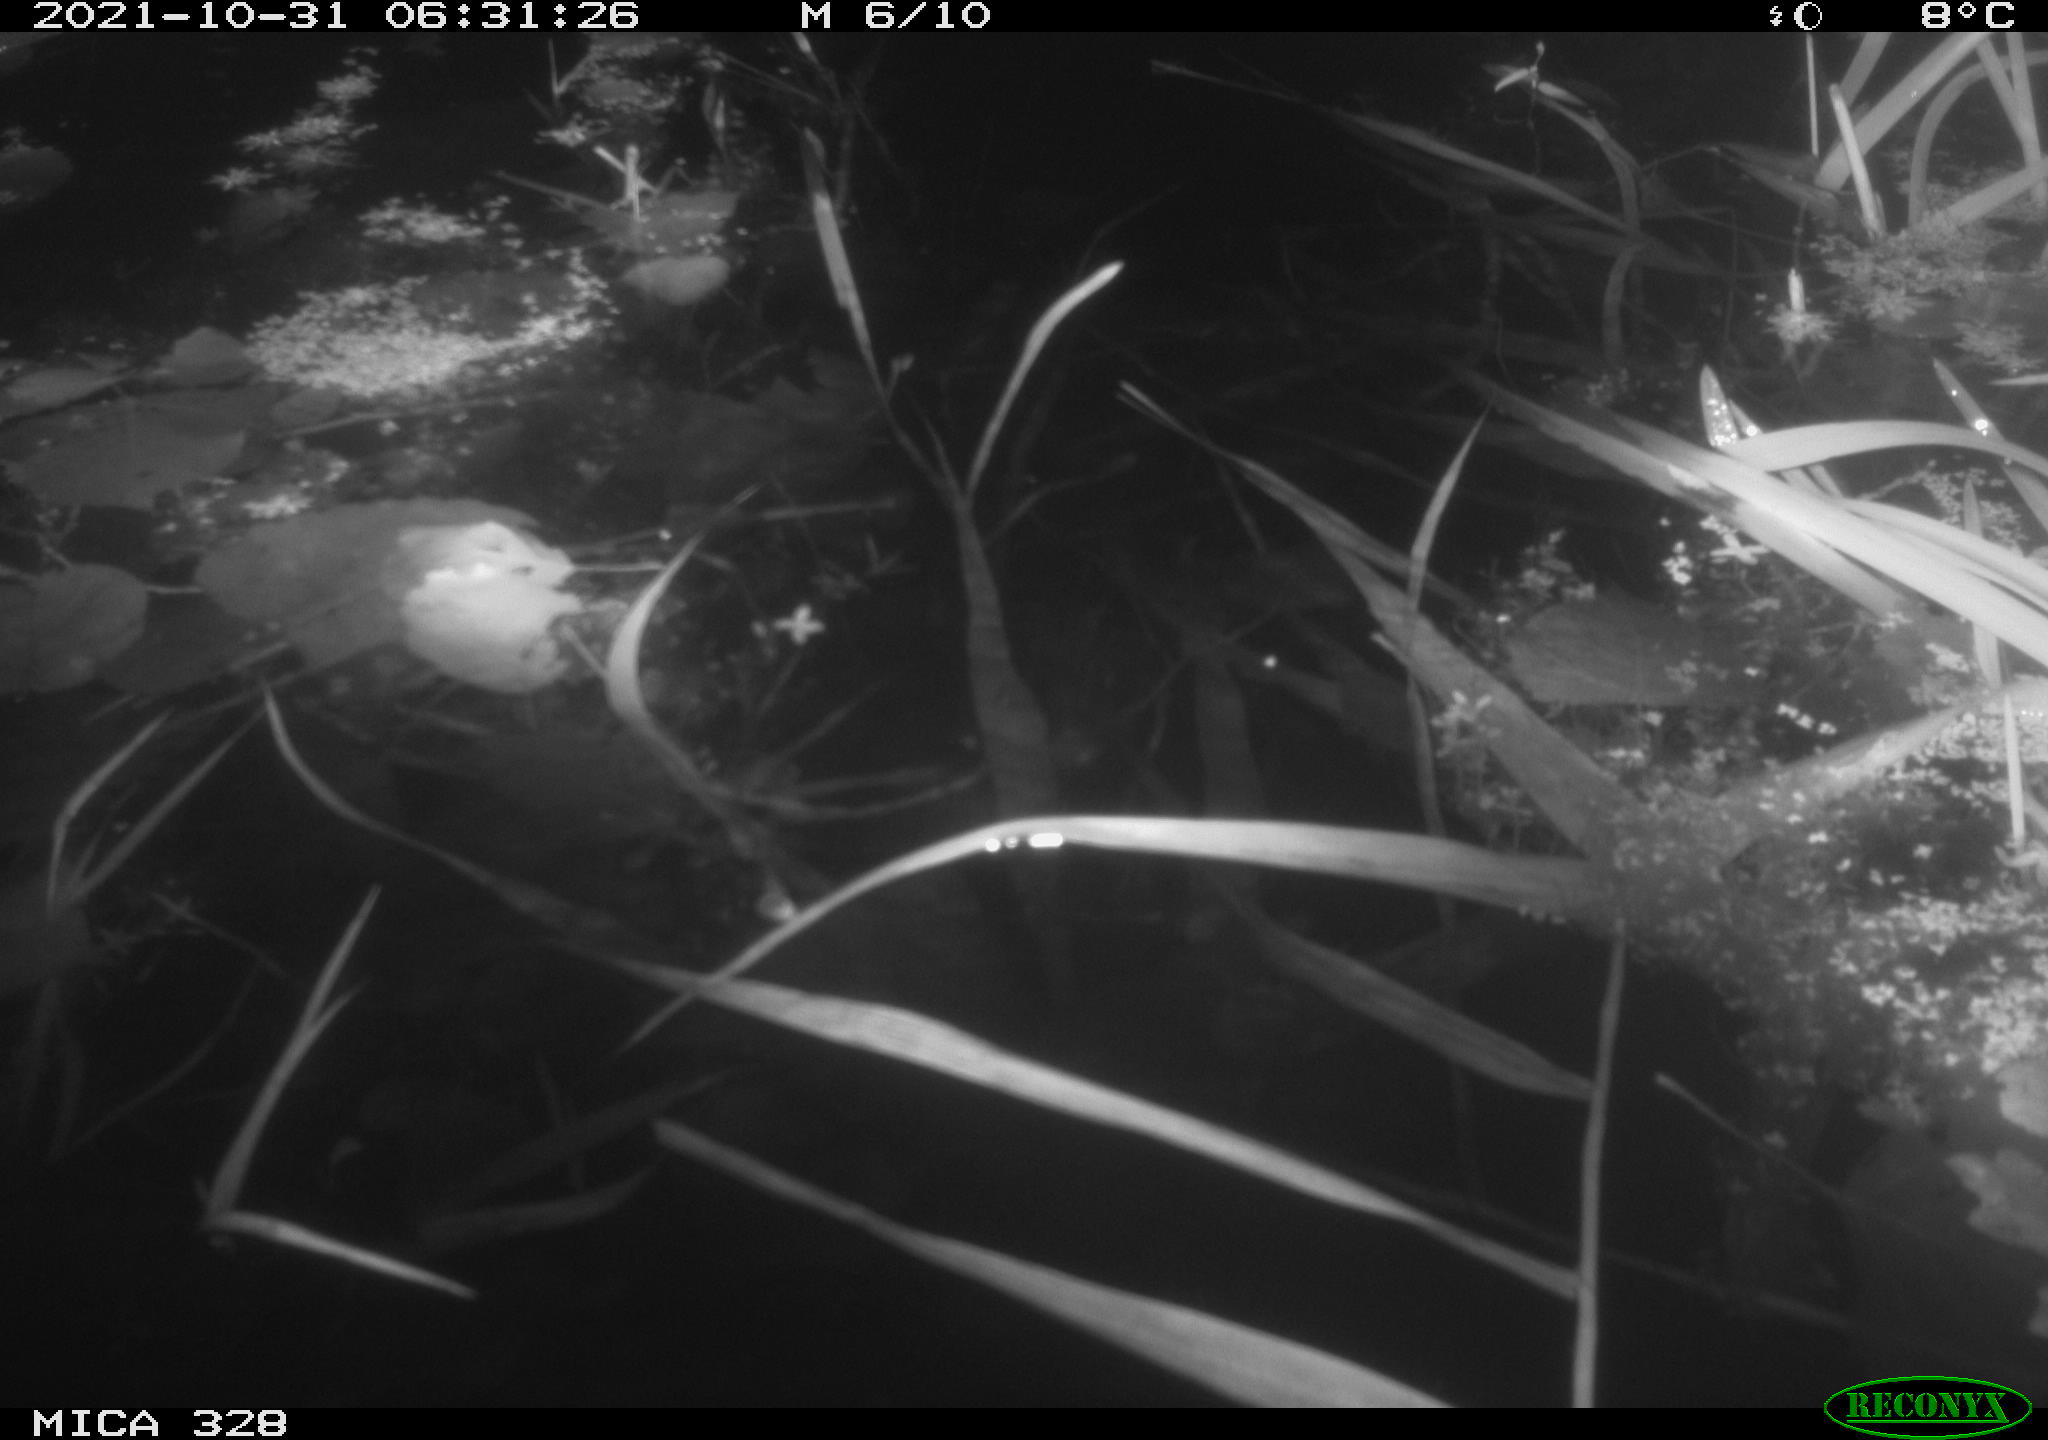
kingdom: Animalia
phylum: Chordata
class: Mammalia
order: Rodentia
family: Cricetidae
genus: Ondatra
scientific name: Ondatra zibethicus
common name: Muskrat
